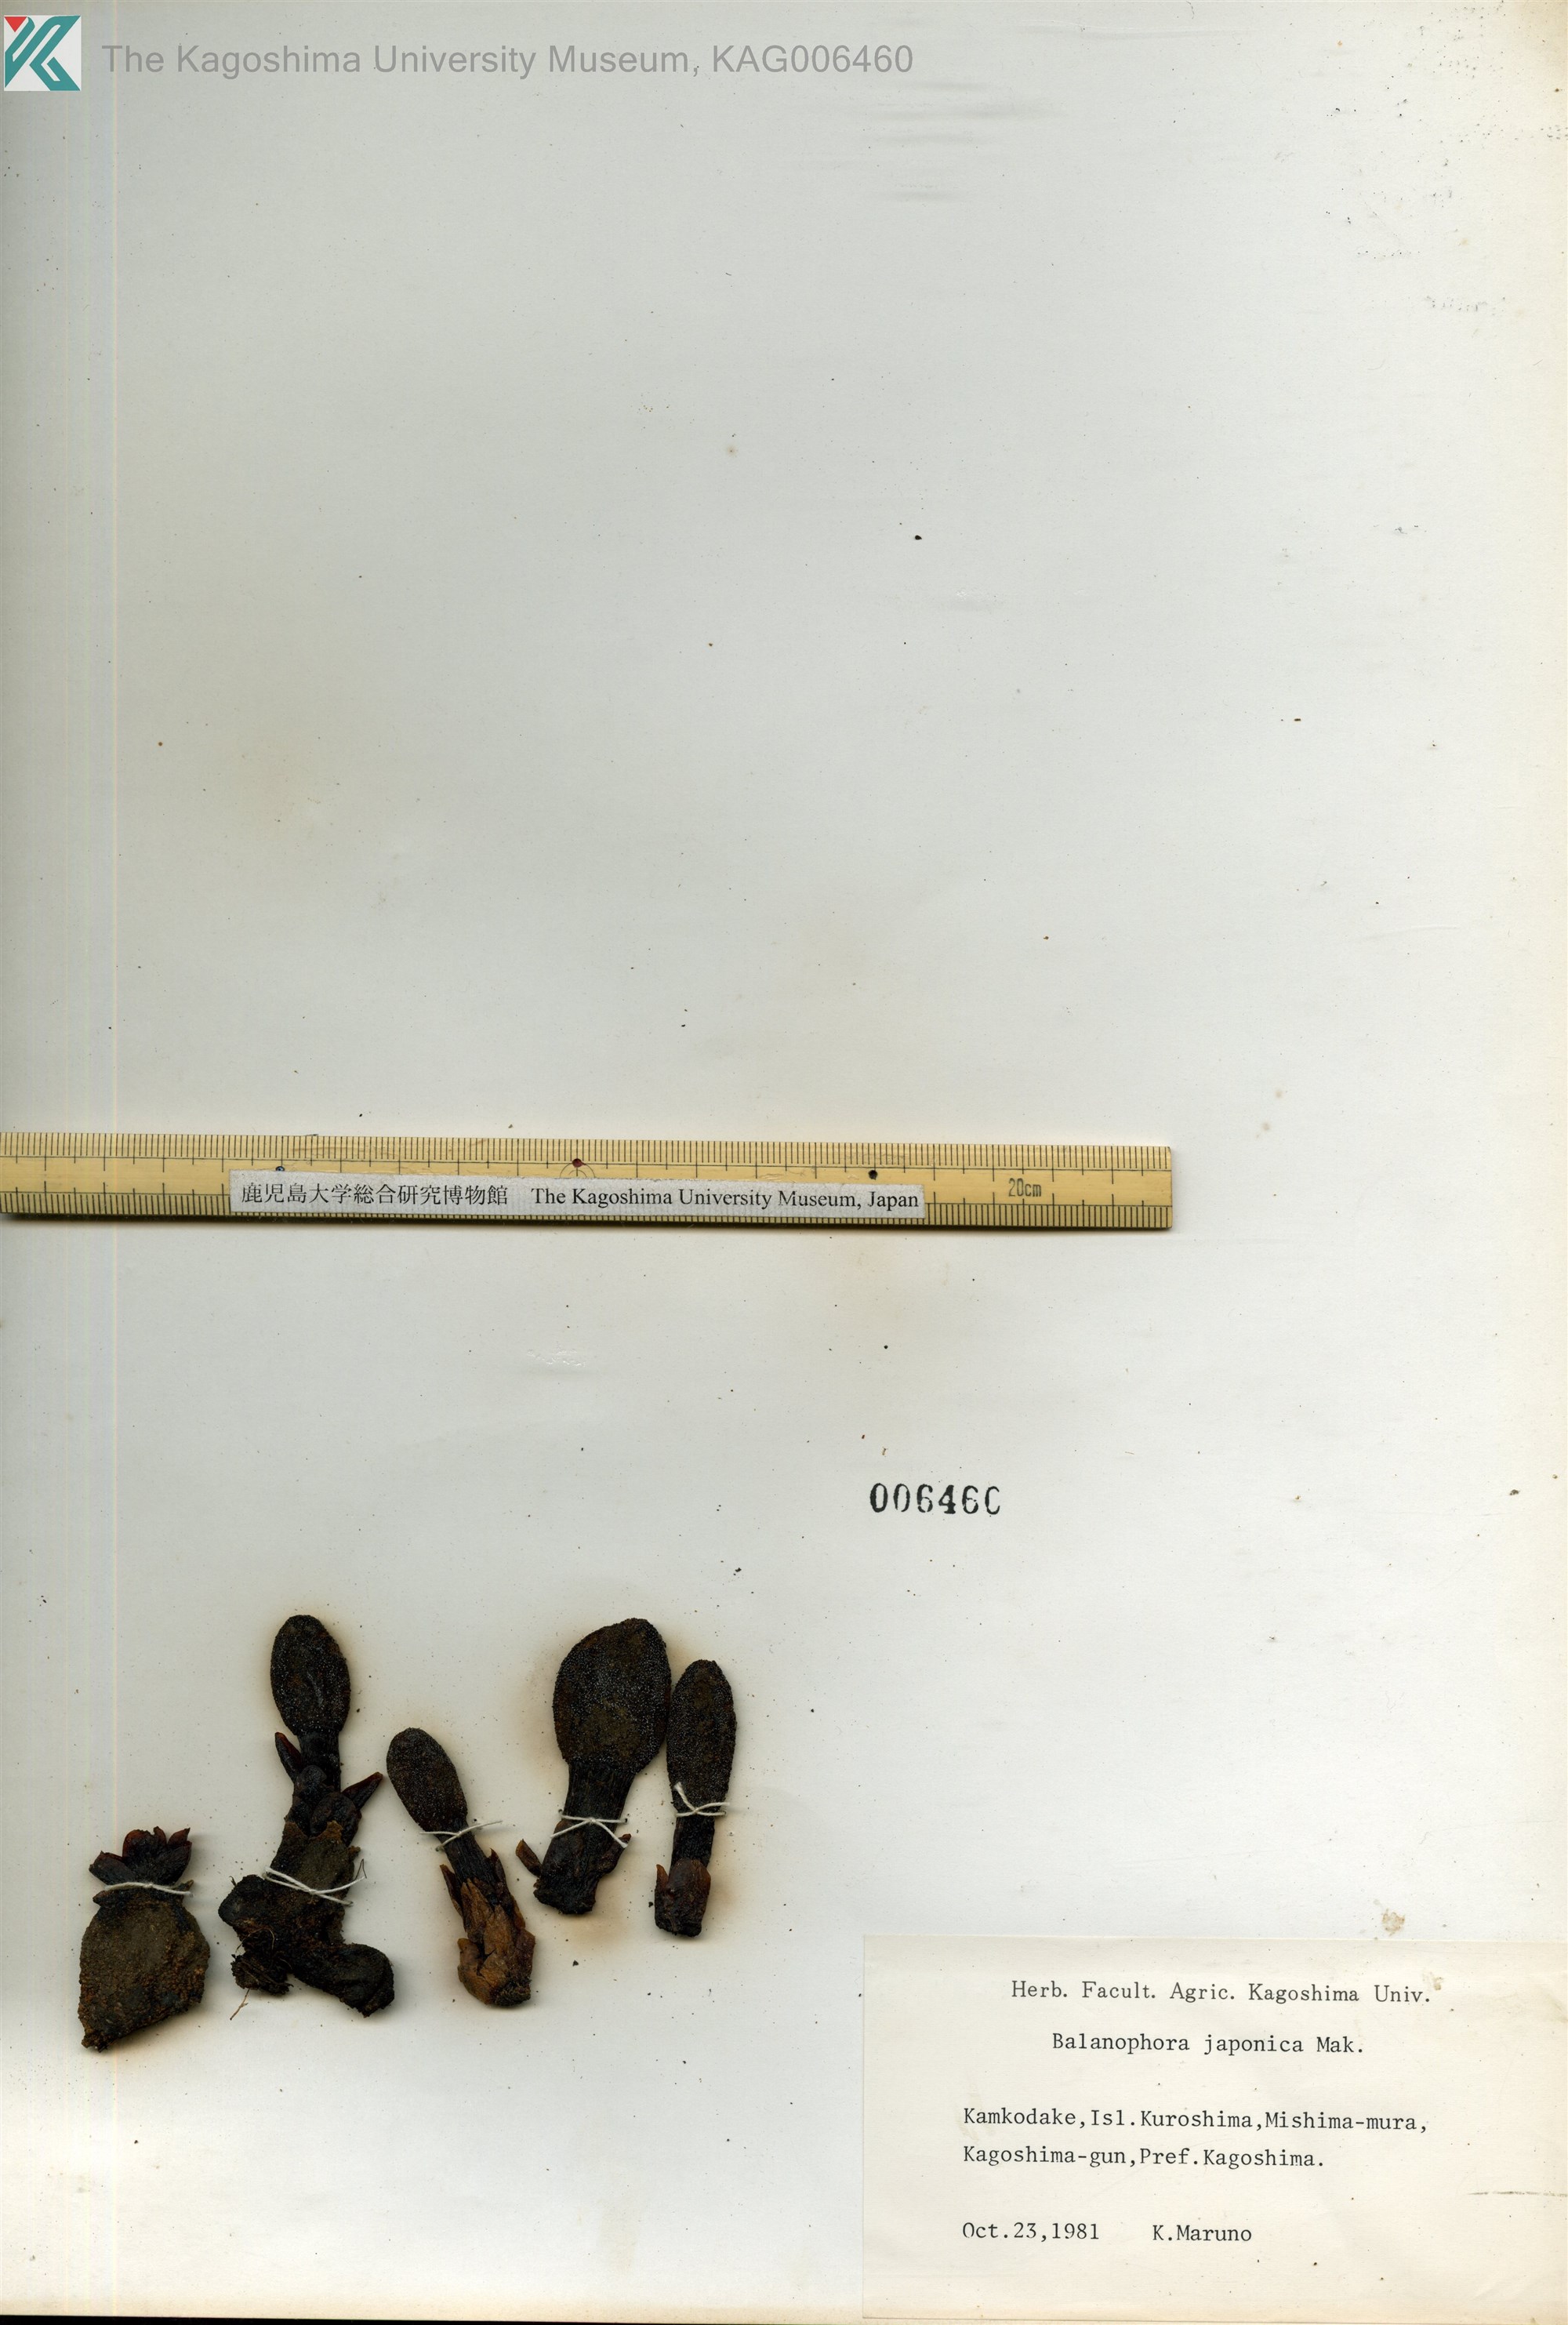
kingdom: Plantae
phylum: Tracheophyta
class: Magnoliopsida
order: Santalales
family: Balanophoraceae
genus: Balanophora
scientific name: Balanophora japonica
